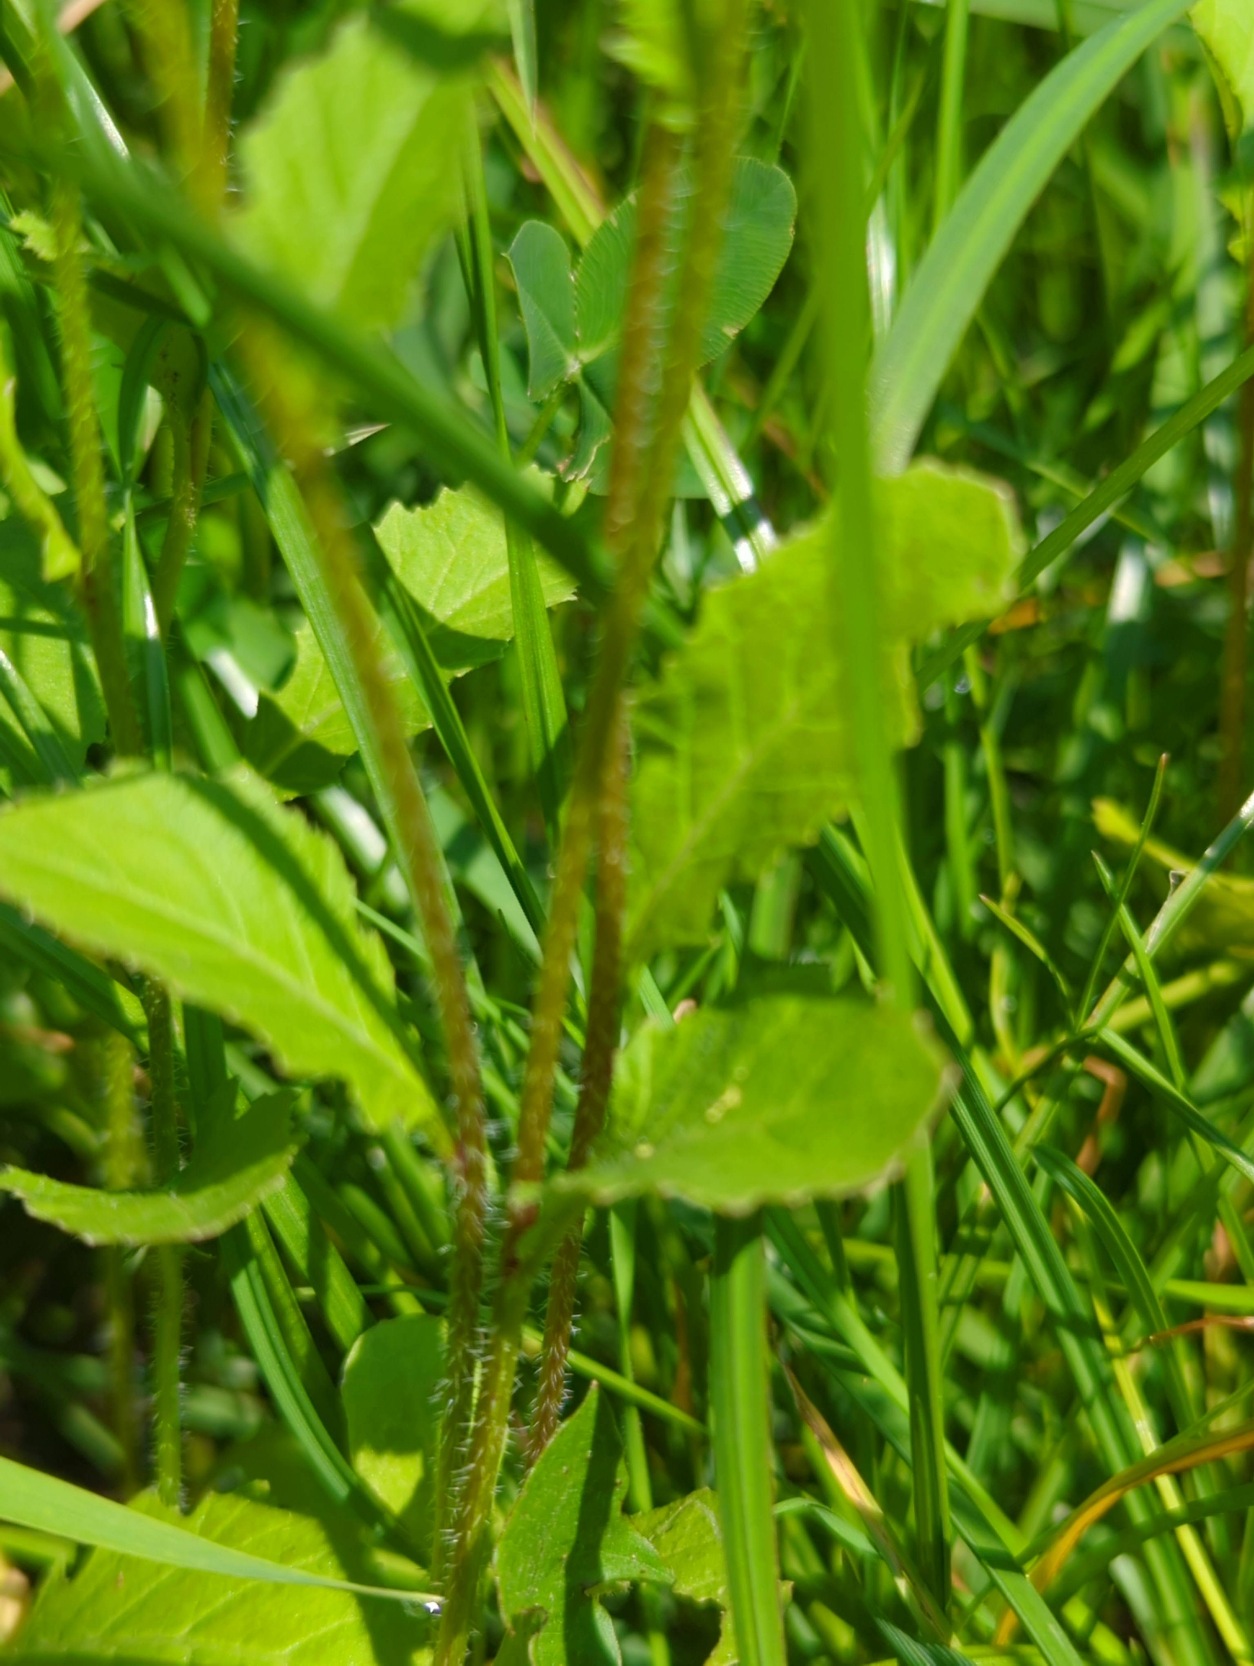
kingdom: Plantae
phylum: Tracheophyta
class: Magnoliopsida
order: Brassicales
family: Brassicaceae
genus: Sinapis
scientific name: Sinapis arvensis
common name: Ager-sennep
